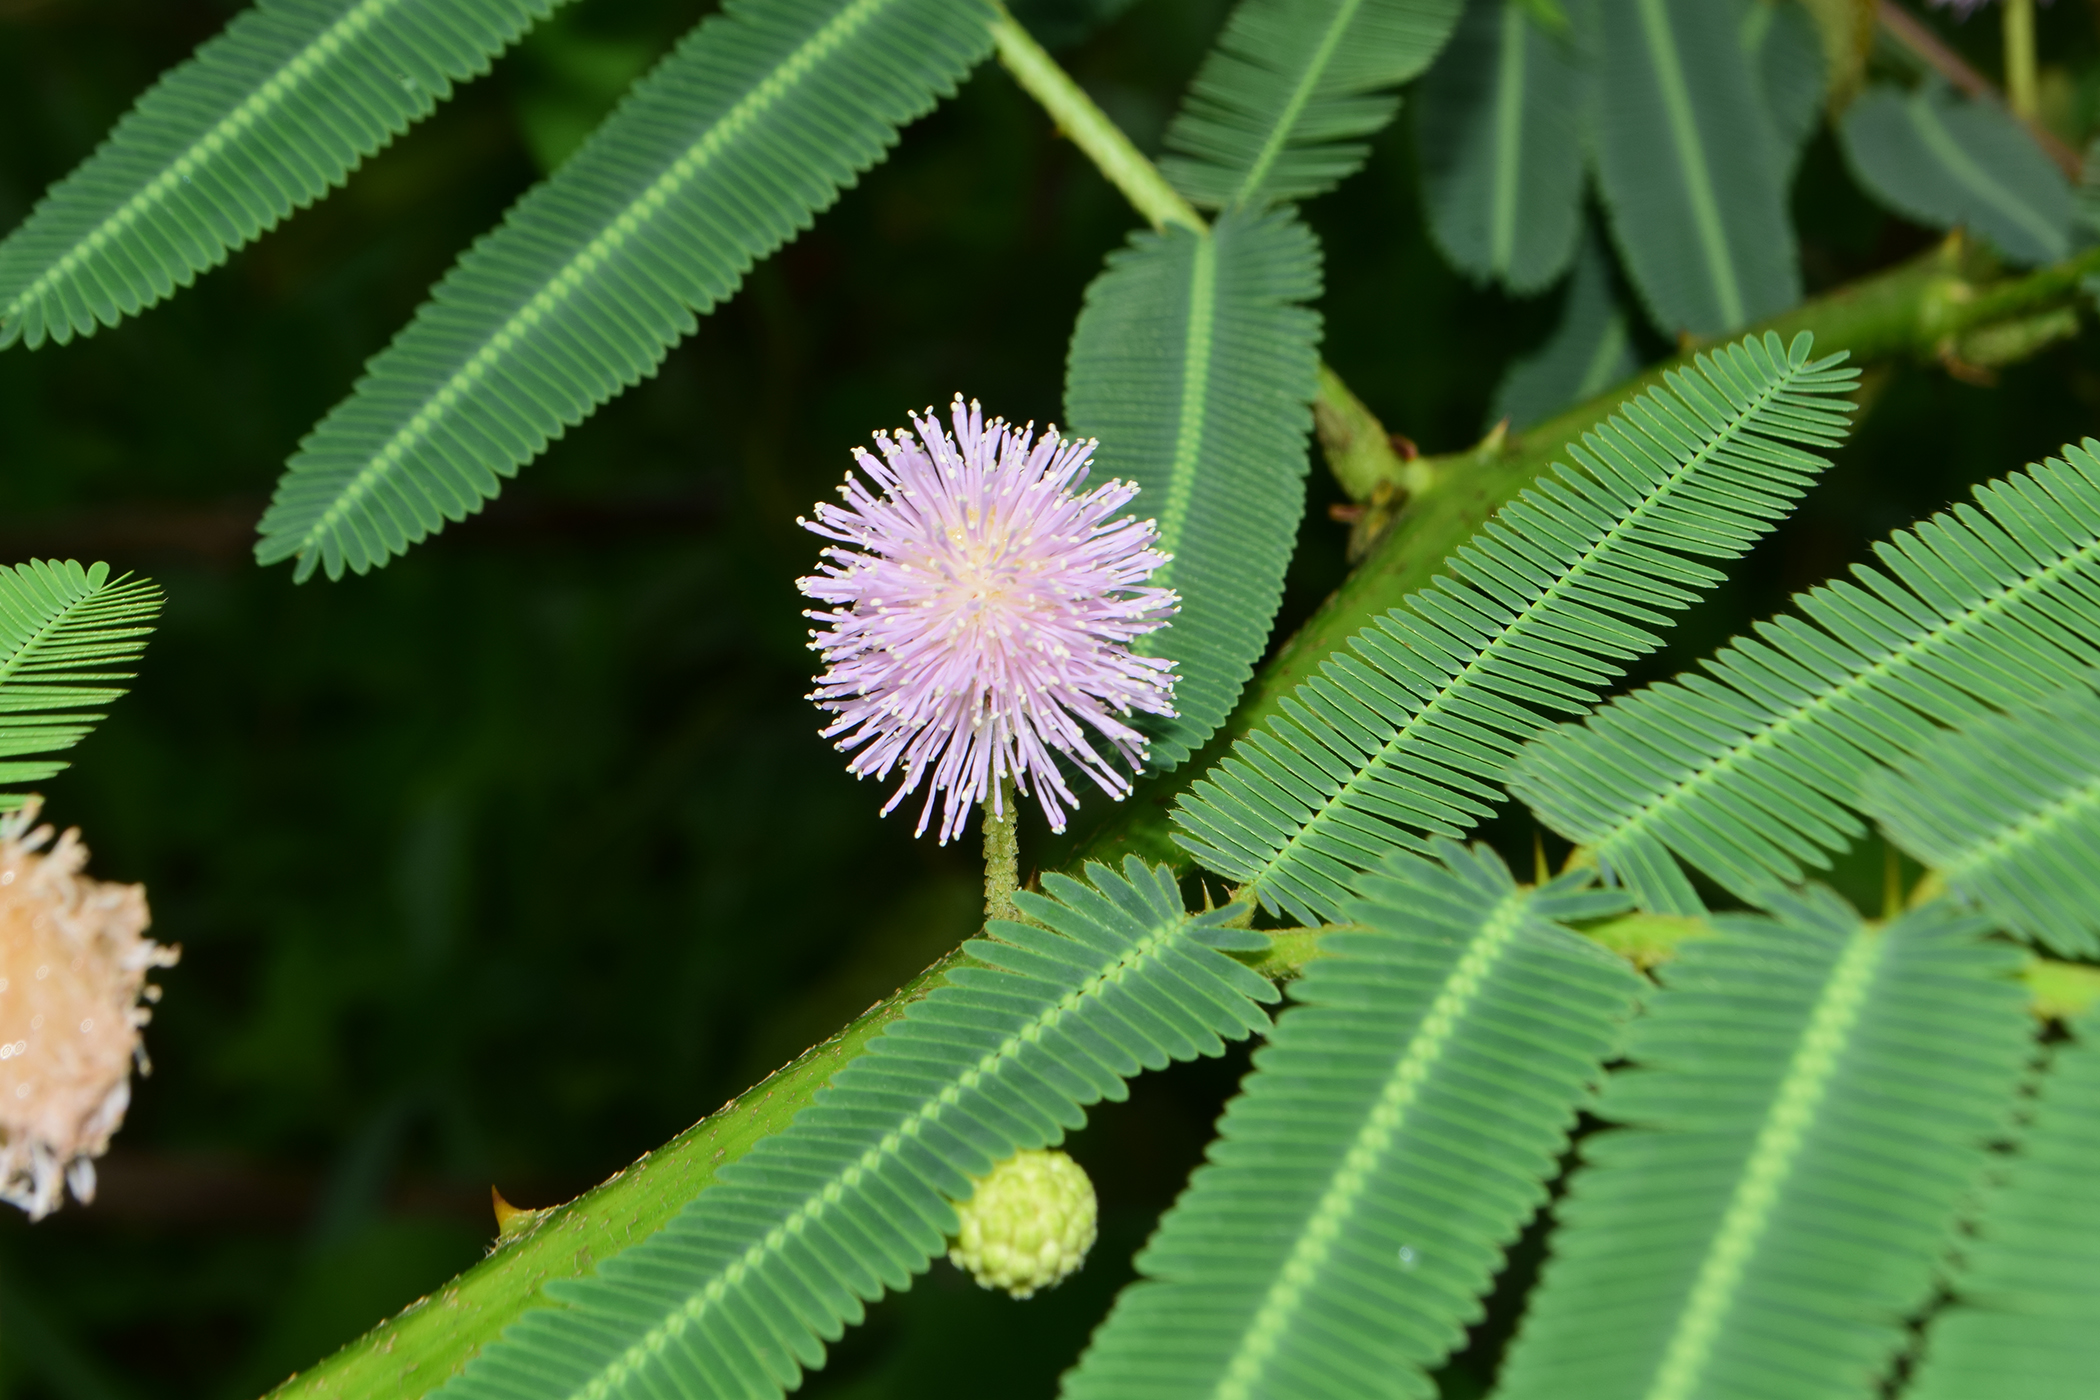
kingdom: Plantae
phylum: Tracheophyta
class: Magnoliopsida
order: Fabales
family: Fabaceae
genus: Mimosa
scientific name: Mimosa pigra
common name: Black mimosa
